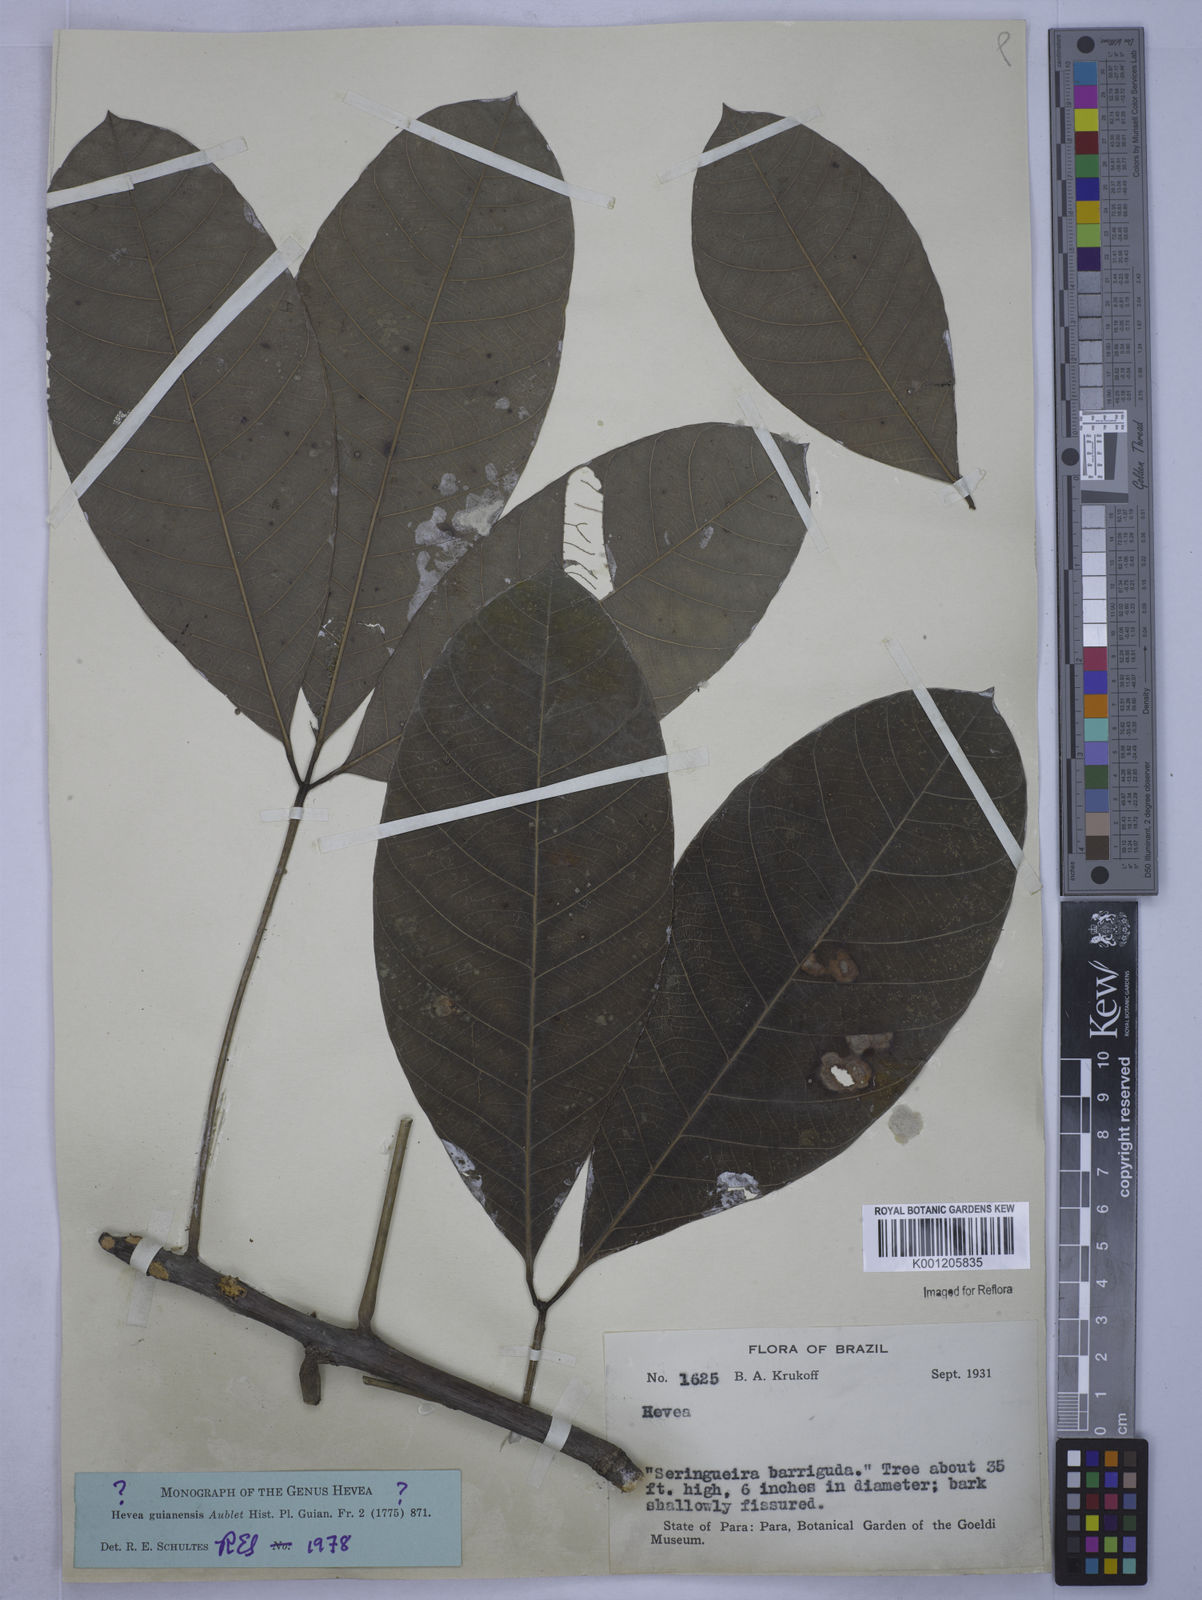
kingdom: Plantae
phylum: Tracheophyta
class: Magnoliopsida
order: Malpighiales
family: Euphorbiaceae
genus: Hevea
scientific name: Hevea guianensis
